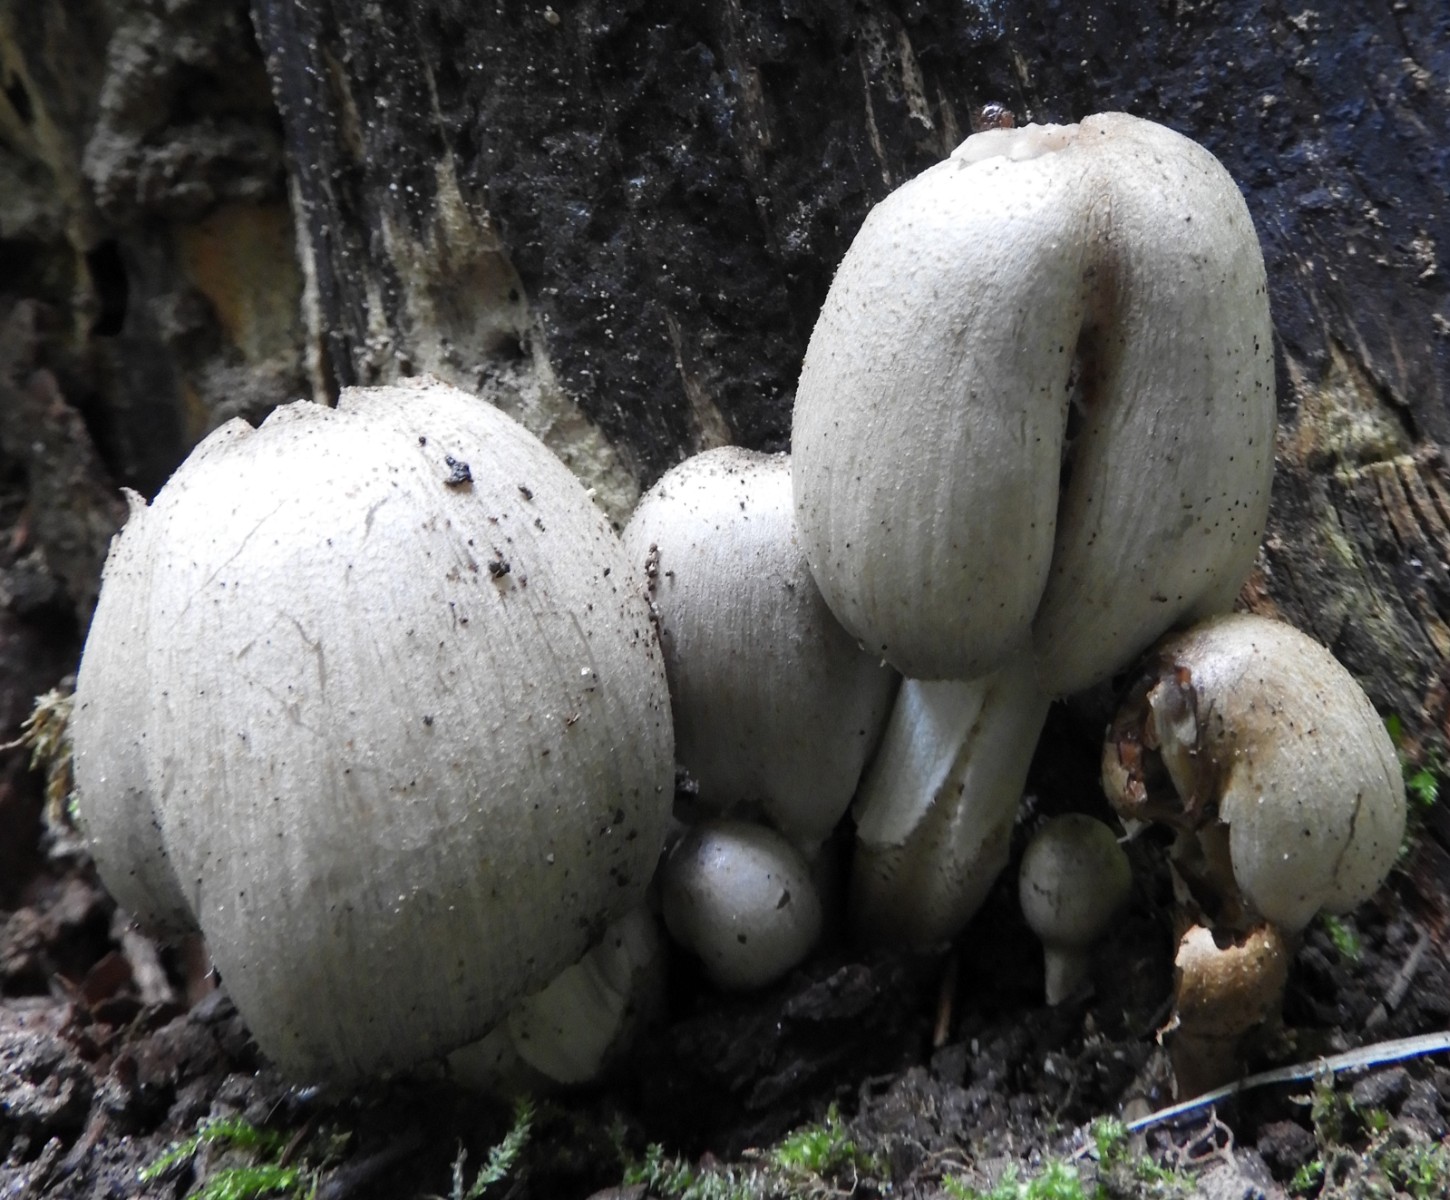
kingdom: Fungi
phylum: Basidiomycota
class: Agaricomycetes
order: Agaricales
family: Psathyrellaceae
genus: Coprinopsis
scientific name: Coprinopsis atramentaria
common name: almindelig blækhat
